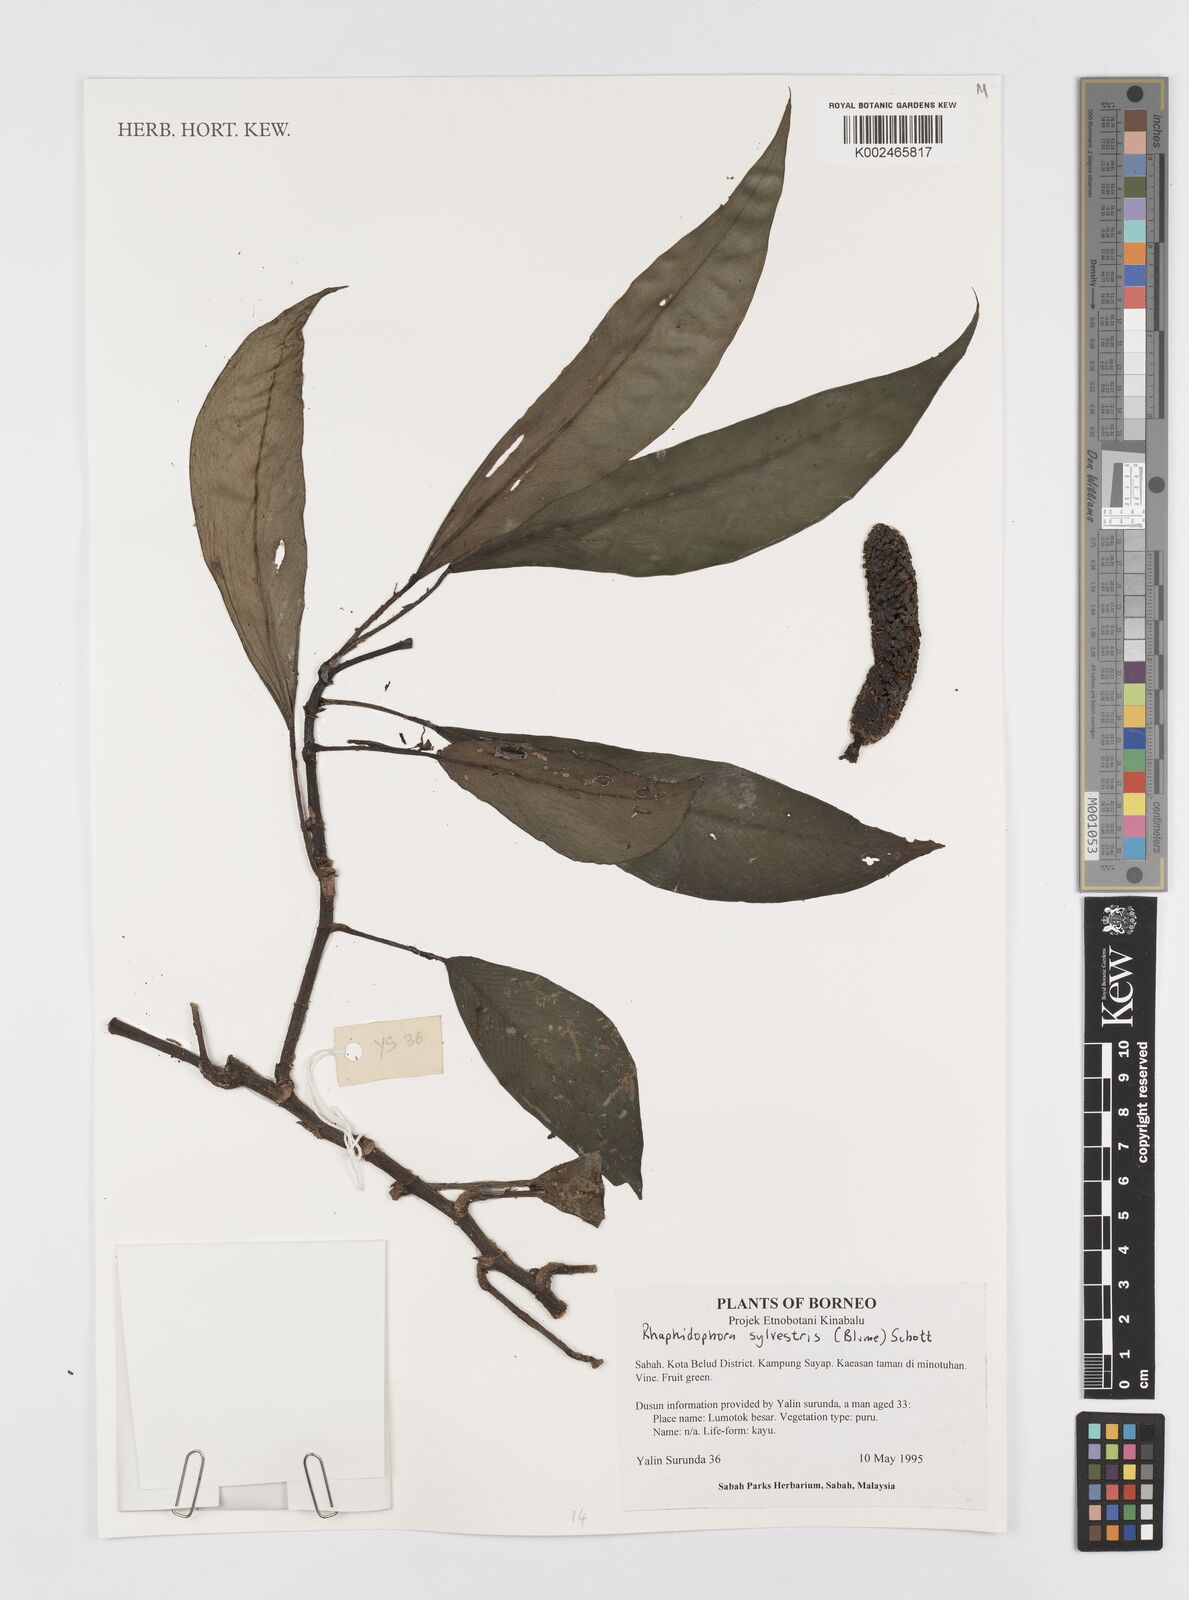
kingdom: Plantae
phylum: Tracheophyta
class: Liliopsida
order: Alismatales
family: Araceae
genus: Rhaphidophora
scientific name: Rhaphidophora sylvestris
